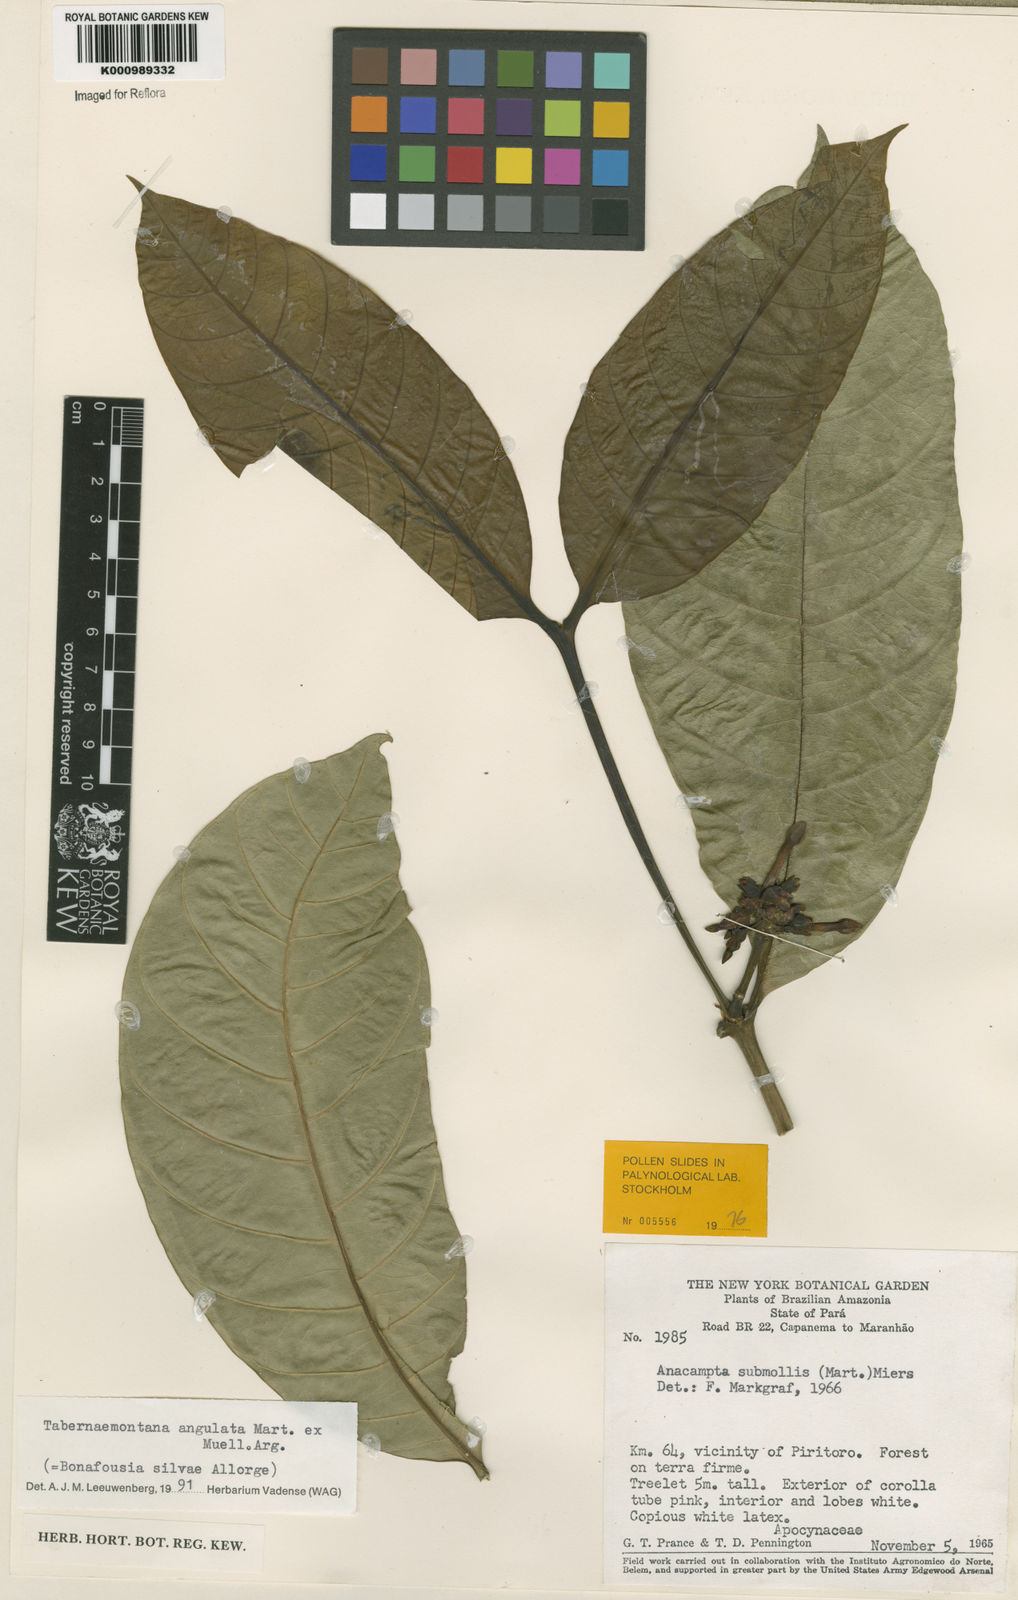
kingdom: Plantae
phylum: Tracheophyta
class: Magnoliopsida
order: Gentianales
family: Apocynaceae
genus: Tabernaemontana
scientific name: Tabernaemontana
